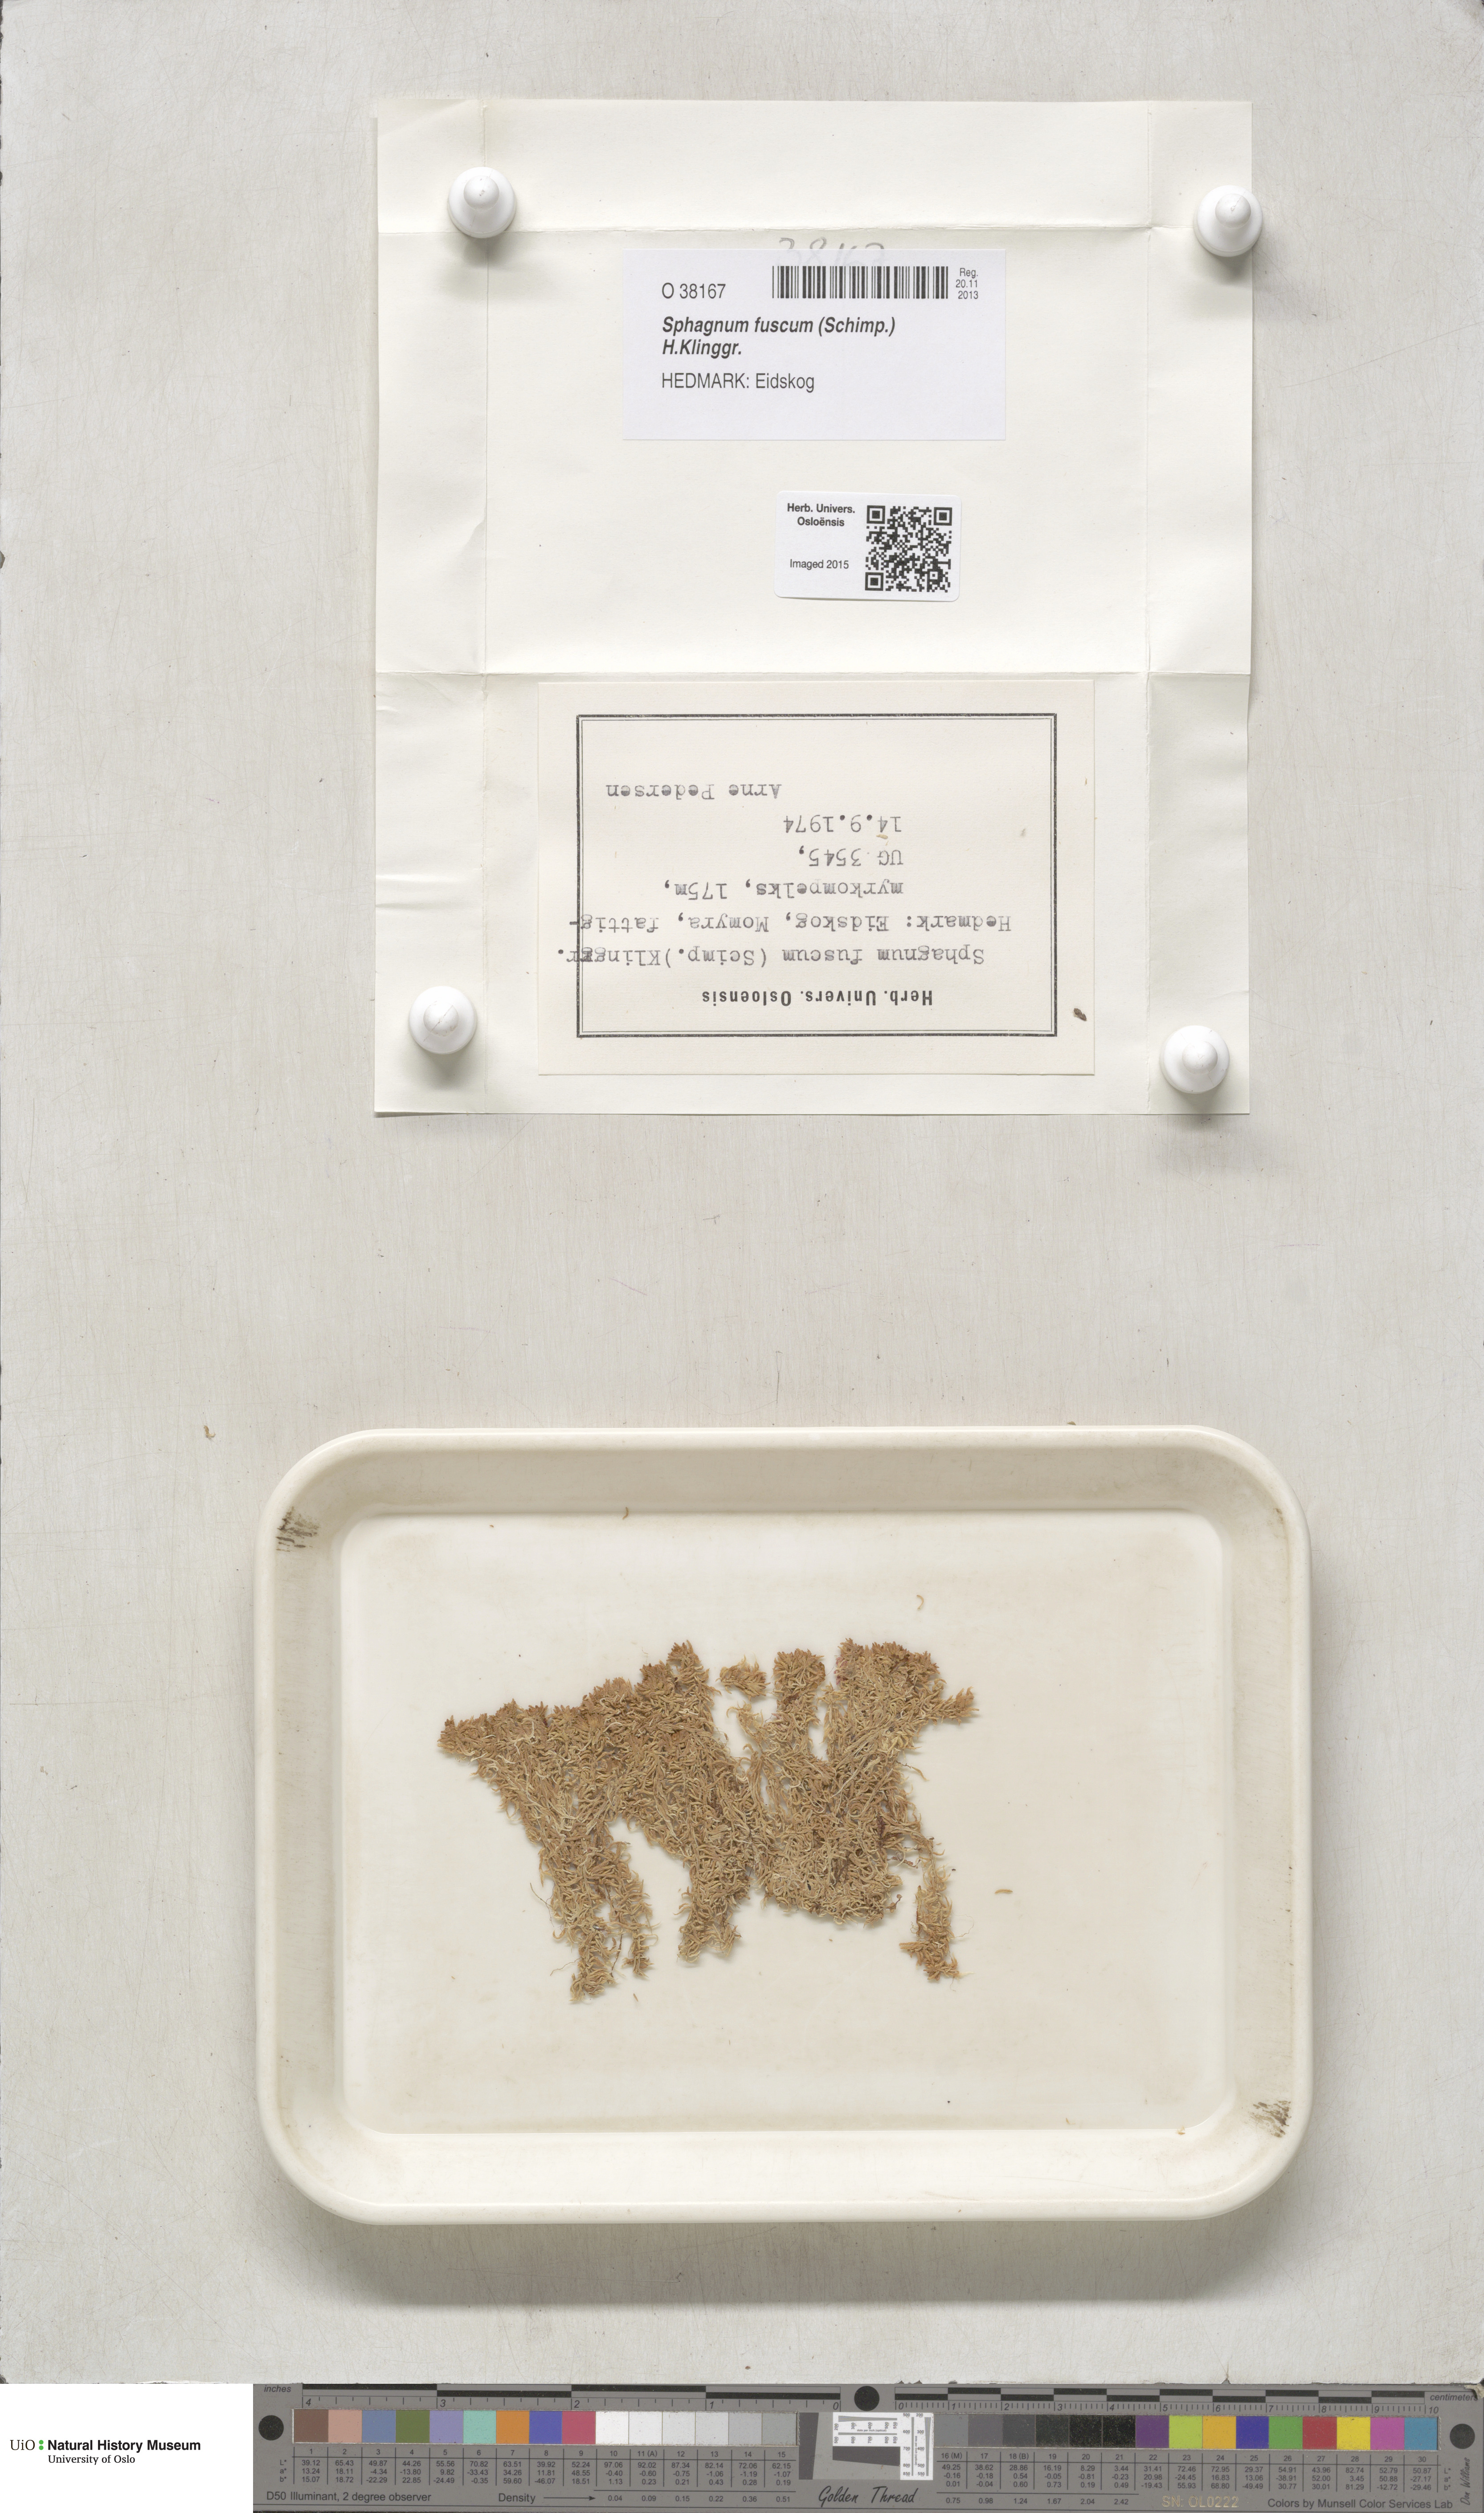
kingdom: Plantae
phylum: Bryophyta
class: Sphagnopsida
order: Sphagnales
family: Sphagnaceae
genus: Sphagnum
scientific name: Sphagnum fuscum
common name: Brown peat moss
